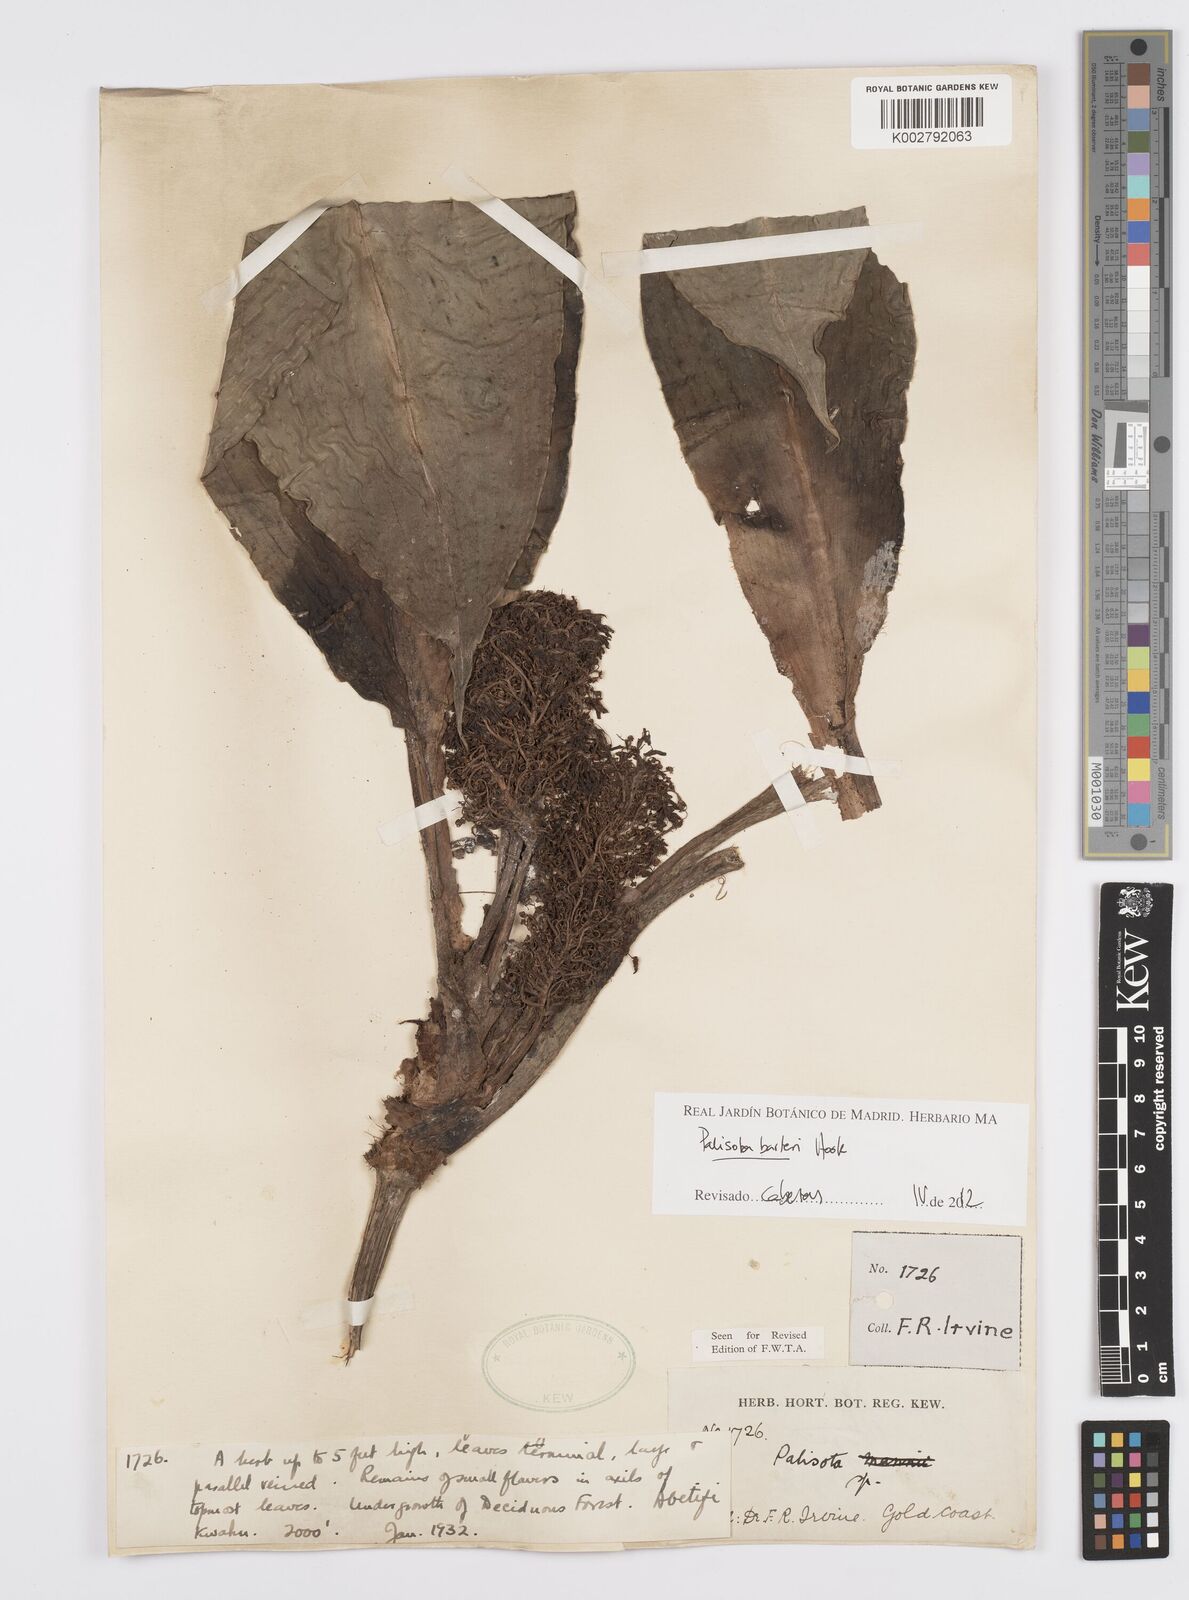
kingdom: Plantae
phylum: Tracheophyta
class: Liliopsida
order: Commelinales
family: Commelinaceae
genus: Palisota
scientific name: Palisota barteri
